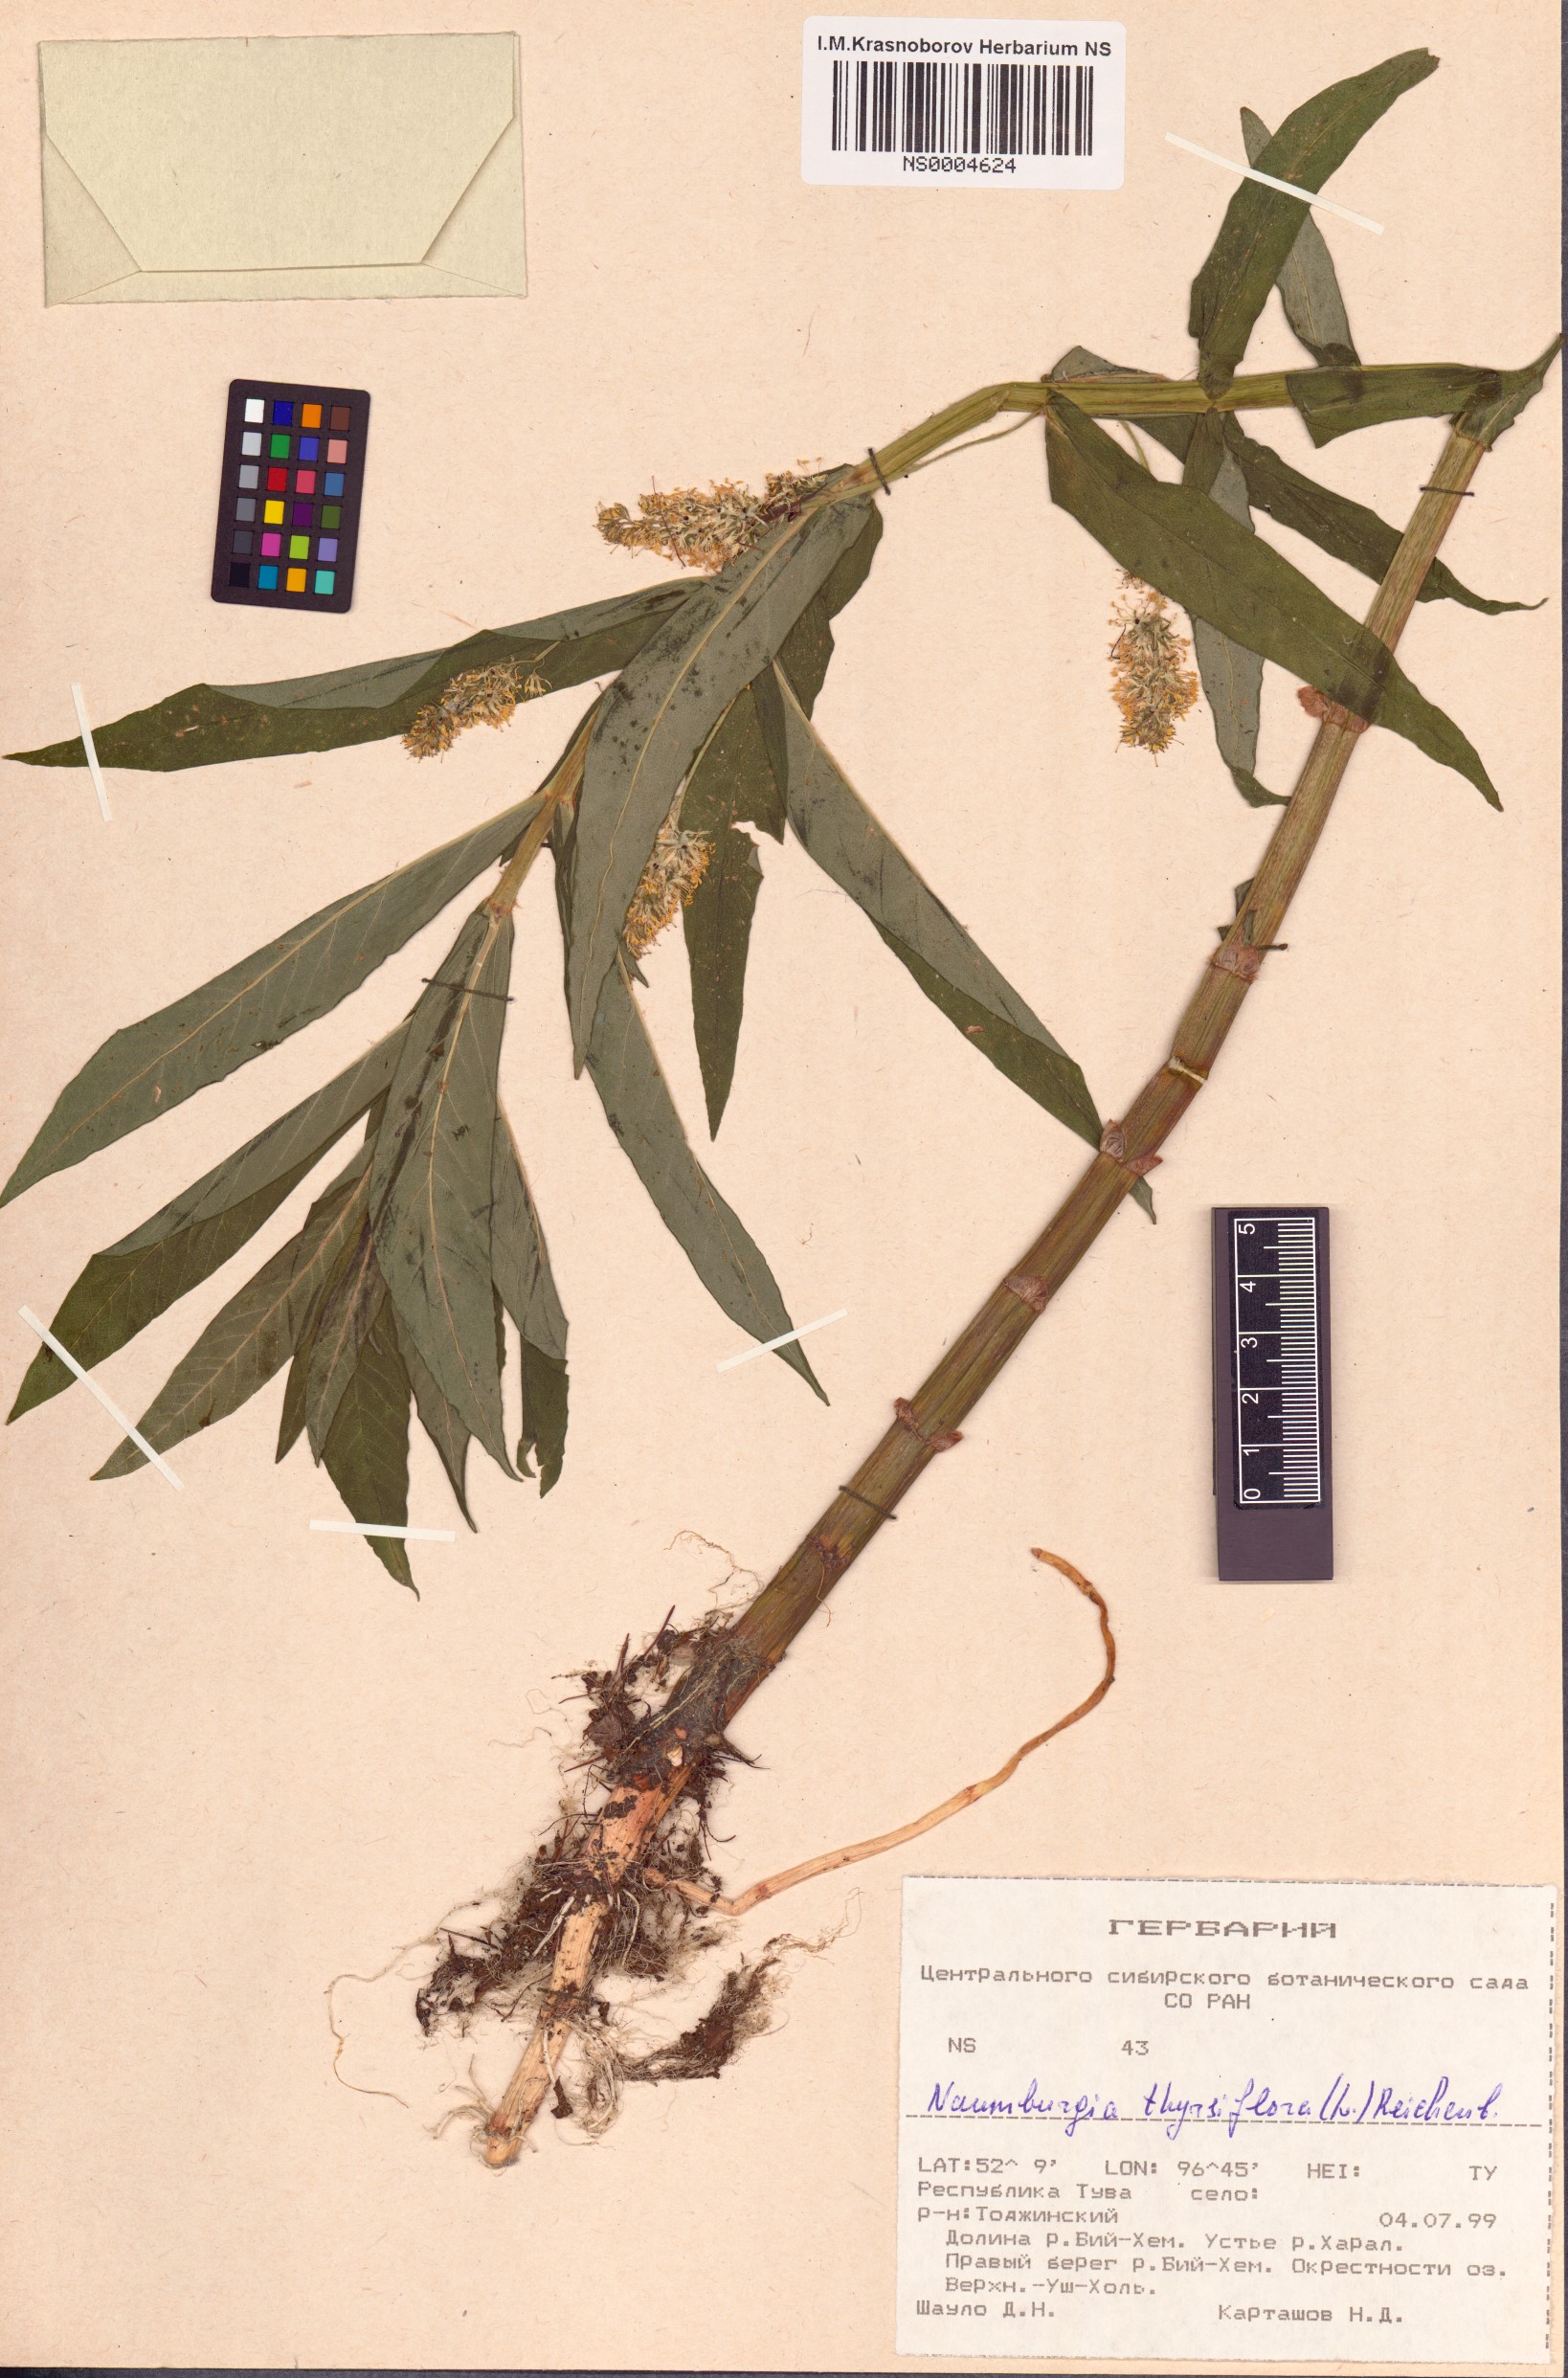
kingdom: Plantae
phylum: Tracheophyta
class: Magnoliopsida
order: Ericales
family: Primulaceae
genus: Lysimachia
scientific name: Lysimachia thyrsiflora
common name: Tufted loosestrife
